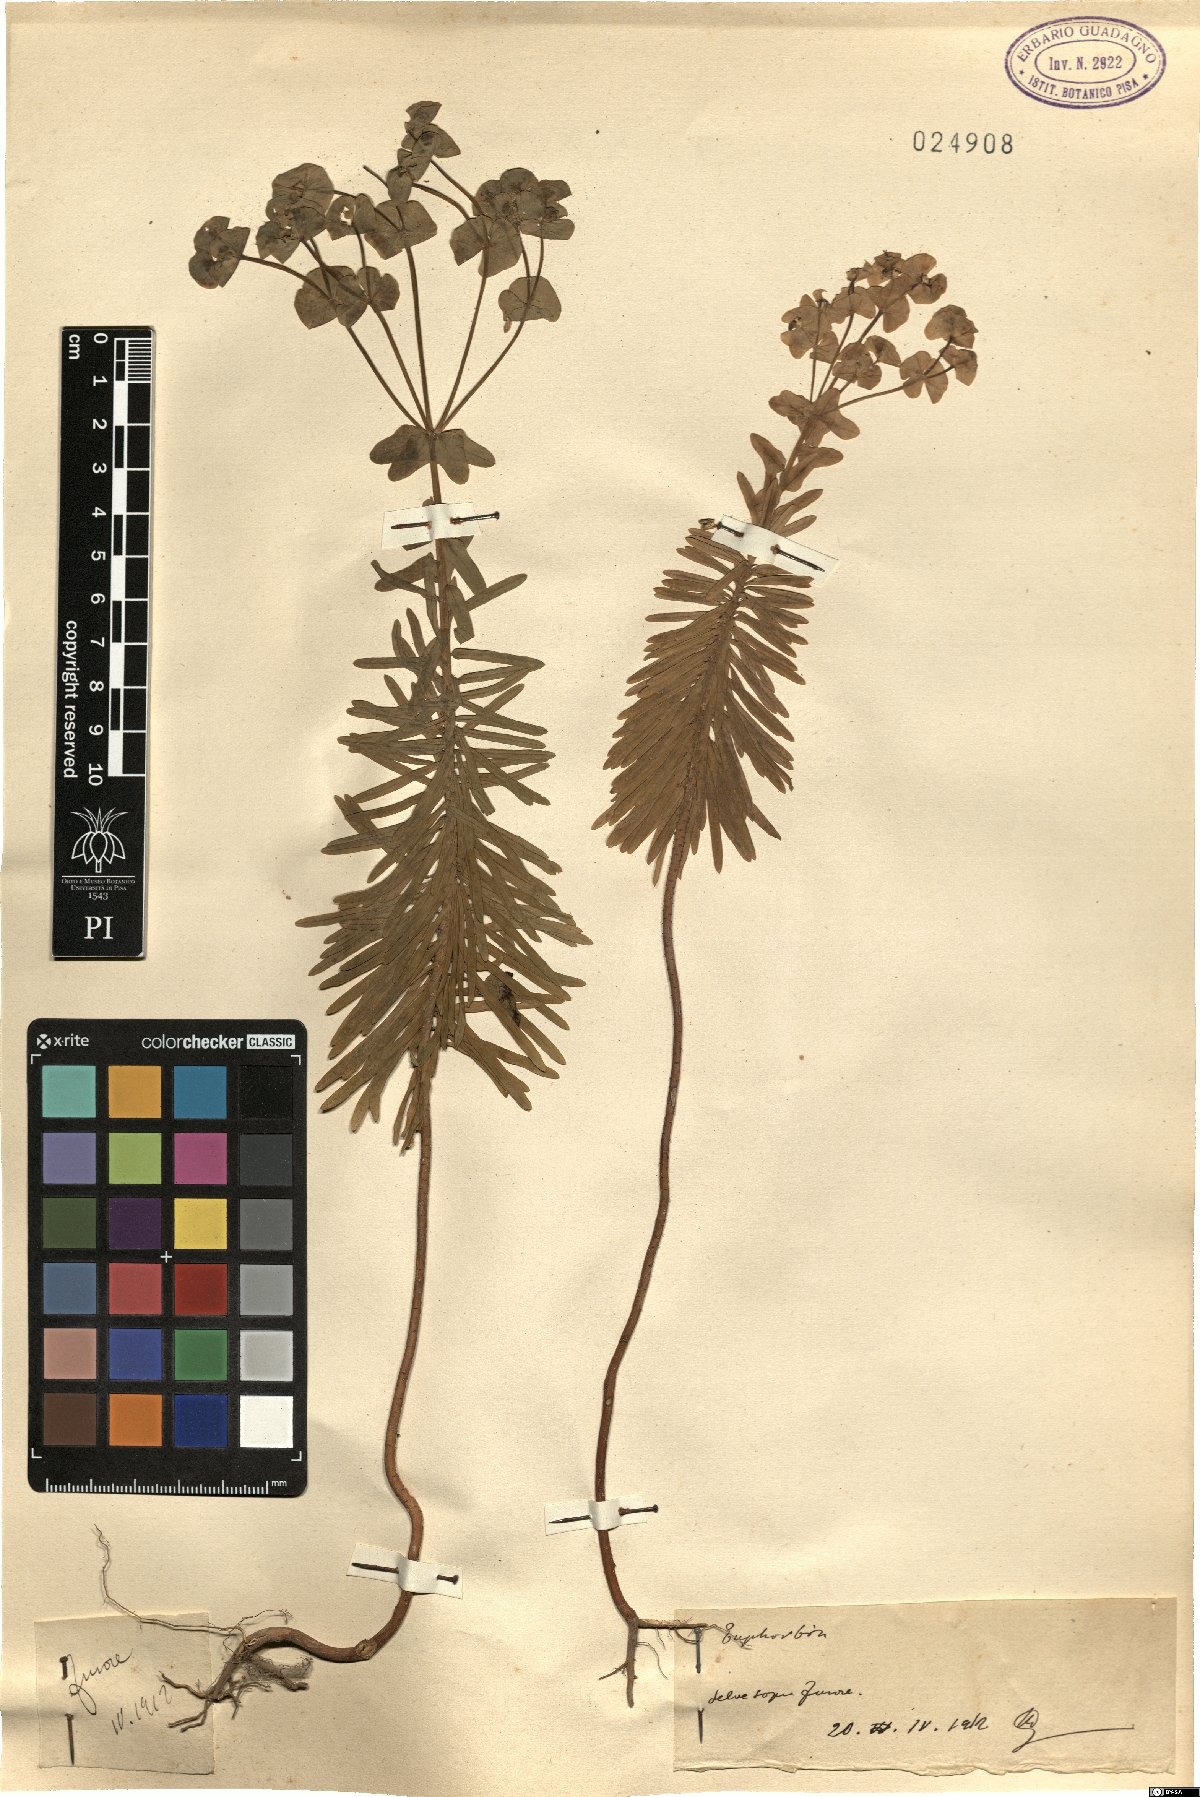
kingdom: Plantae
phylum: Tracheophyta
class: Magnoliopsida
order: Malpighiales
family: Euphorbiaceae
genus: Euphorbia
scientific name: Euphorbia
